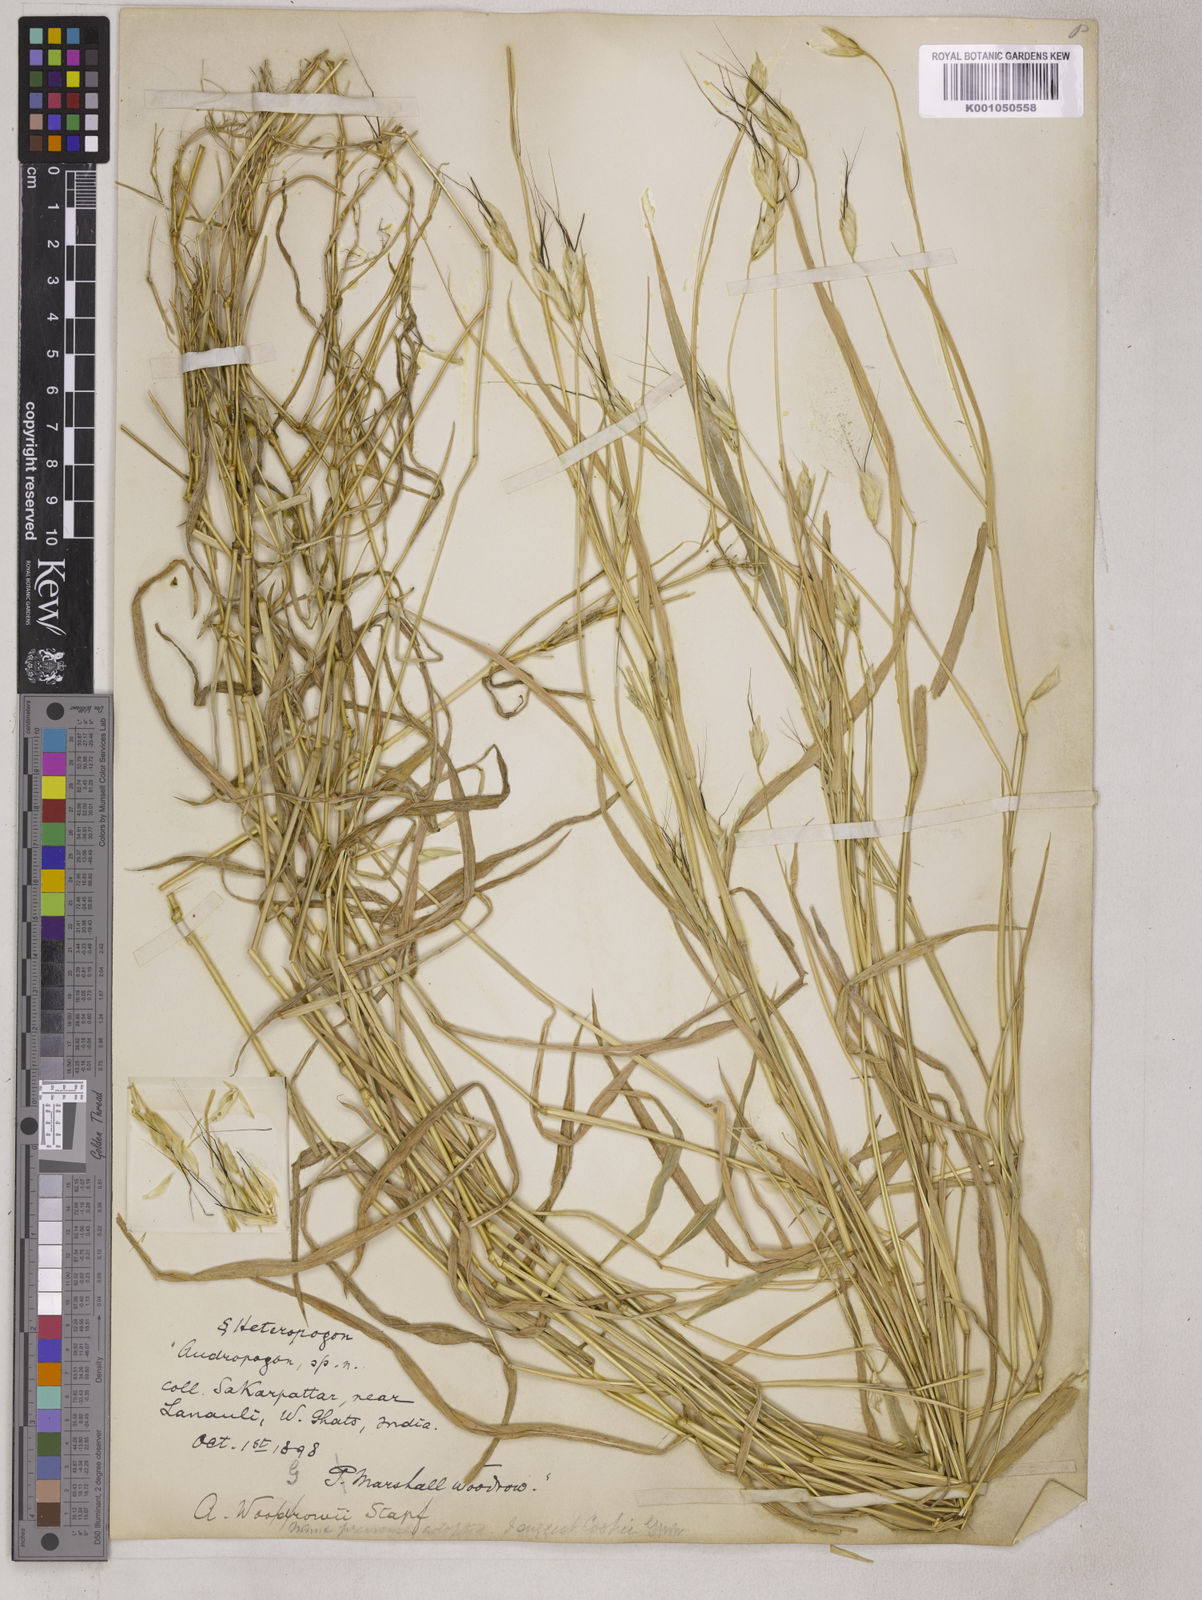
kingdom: Plantae
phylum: Tracheophyta
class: Liliopsida
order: Poales
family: Poaceae
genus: Pseudodichanthium
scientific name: Pseudodichanthium serrafalcoides
